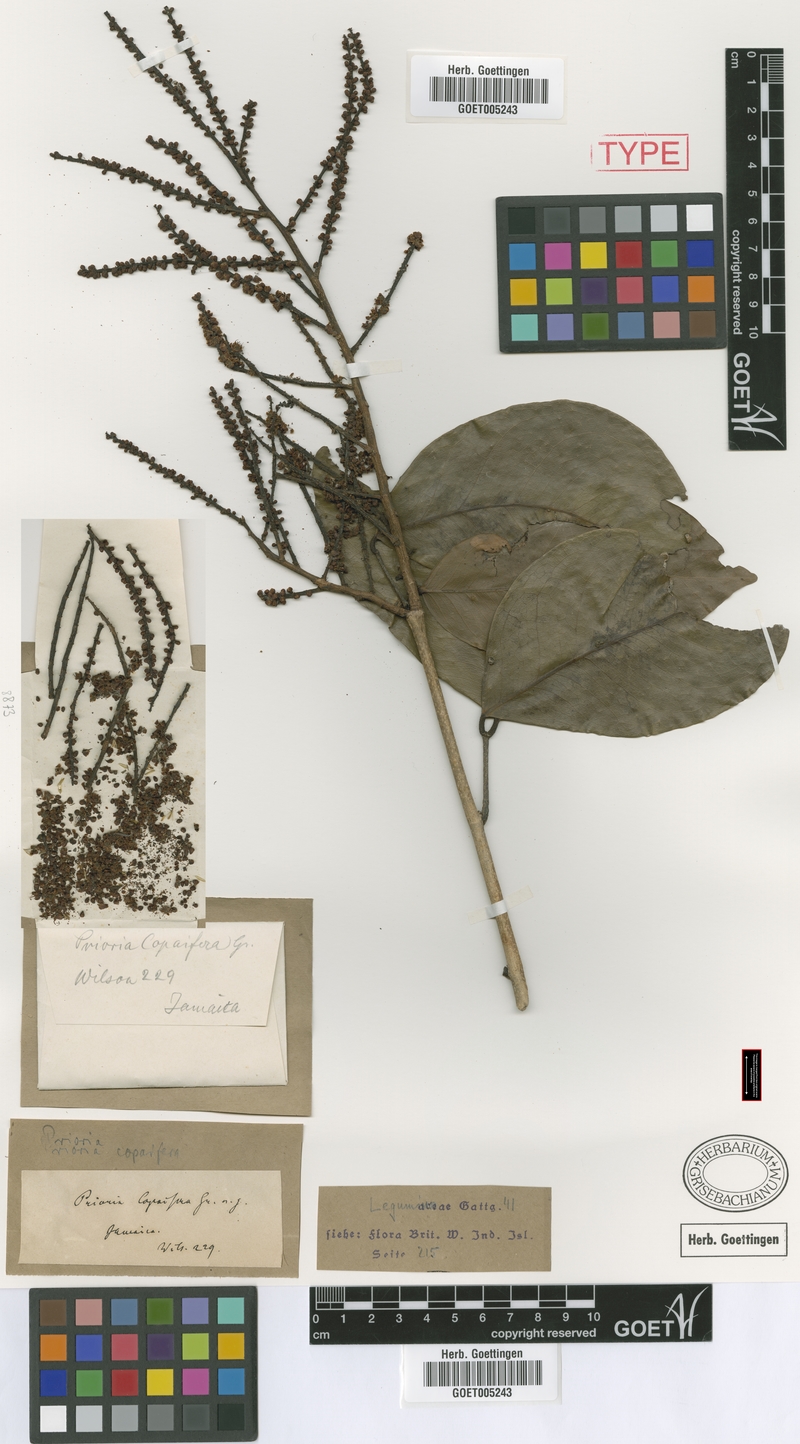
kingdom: Plantae
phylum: Tracheophyta
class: Magnoliopsida
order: Fabales
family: Fabaceae
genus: Prioria
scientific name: Prioria copaifera
